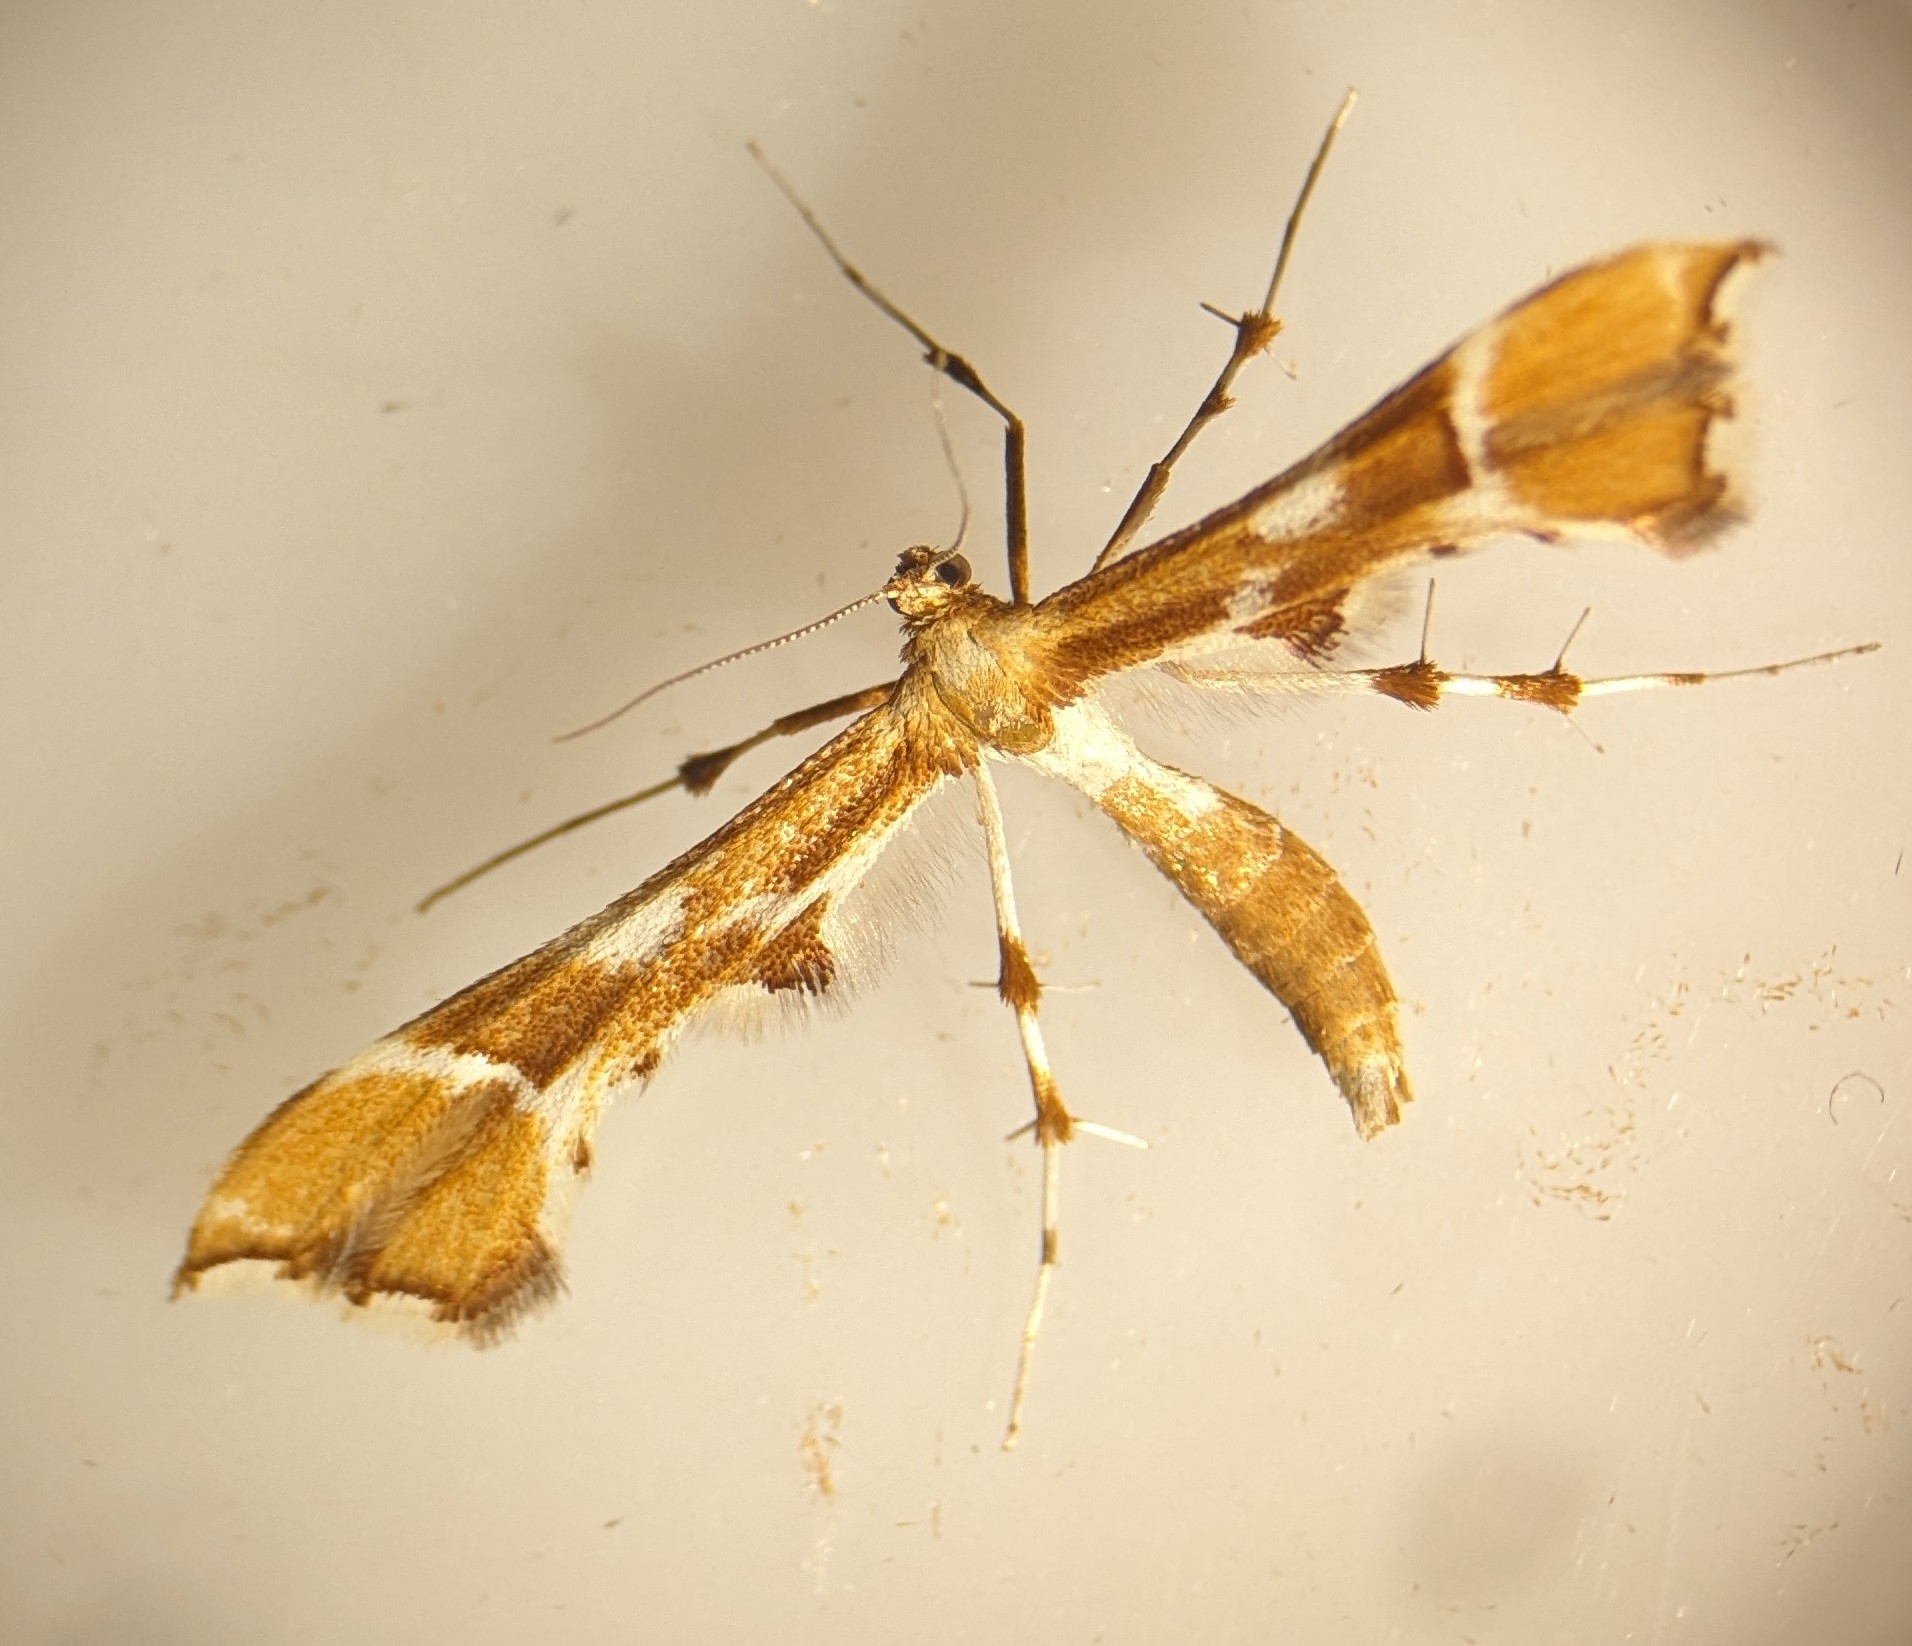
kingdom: Animalia
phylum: Arthropoda
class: Insecta
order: Lepidoptera
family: Pterophoridae
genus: Cnaemidophorus
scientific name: Cnaemidophorus rhododactyla
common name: Rosenknopfjermøl
